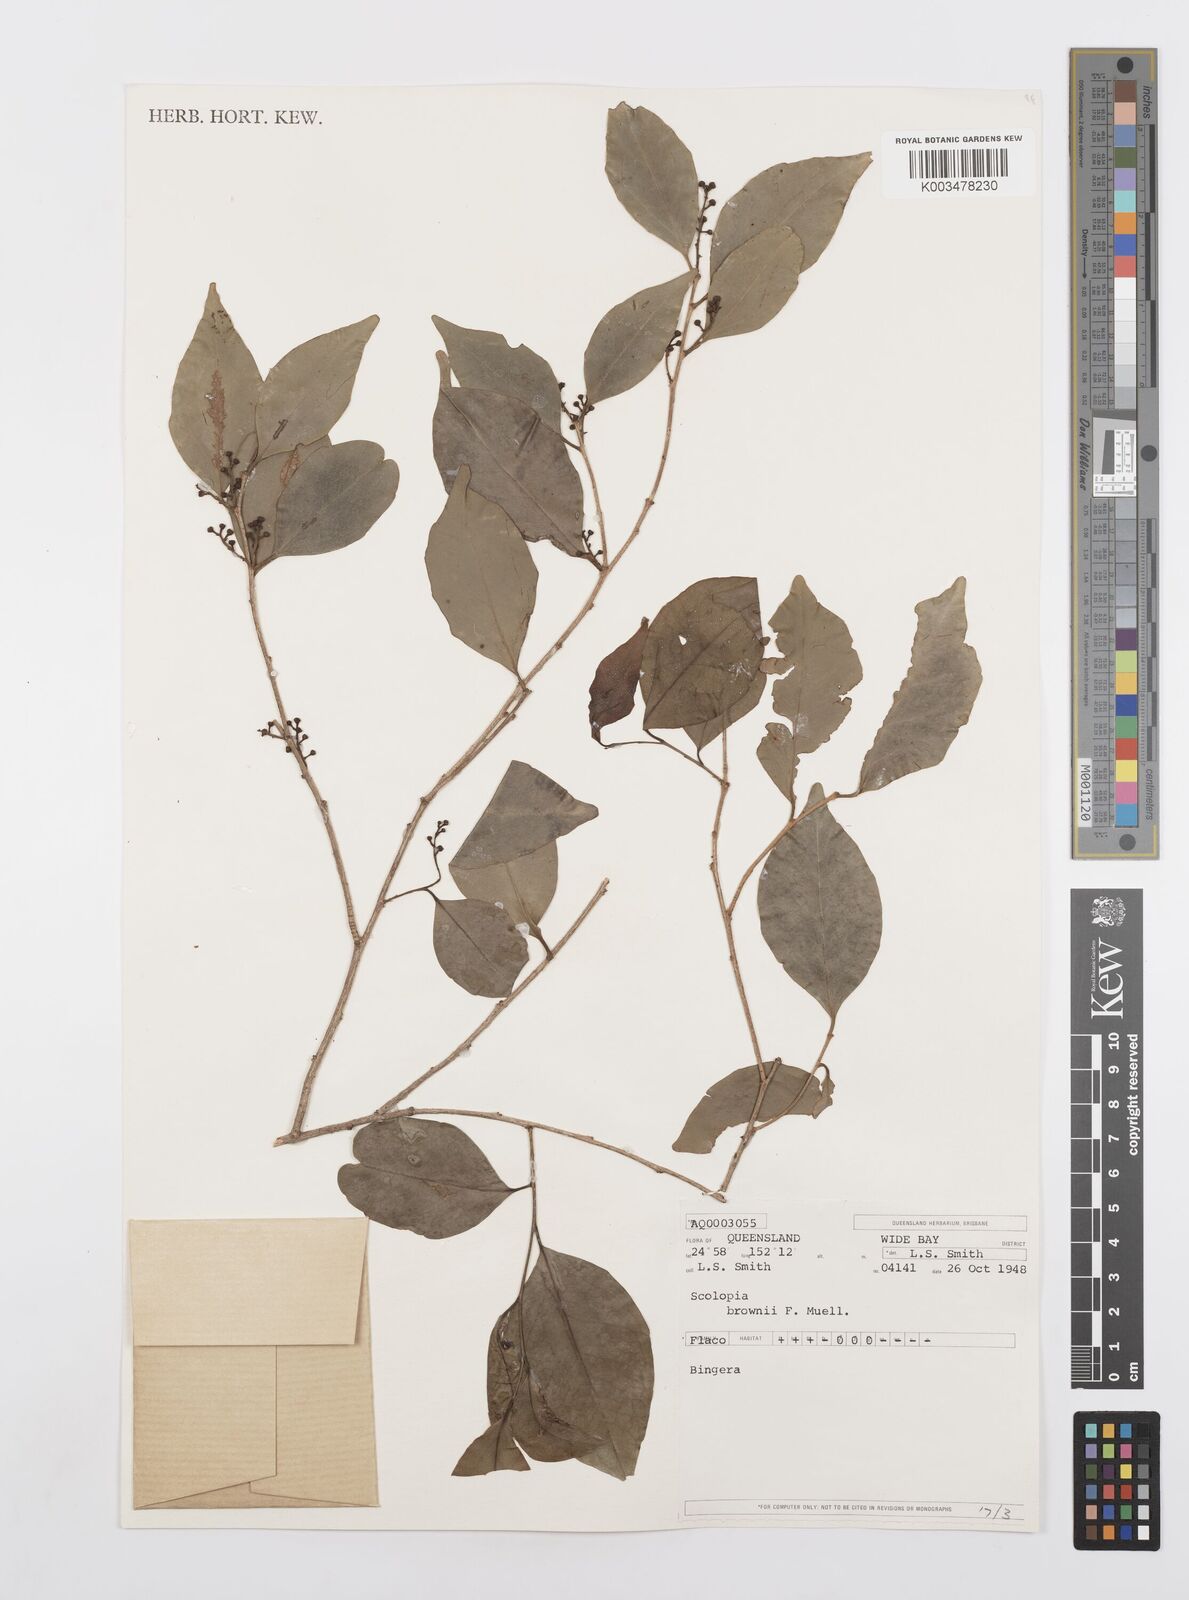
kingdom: Plantae
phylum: Tracheophyta
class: Magnoliopsida
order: Malpighiales
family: Salicaceae
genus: Scolopia
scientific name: Scolopia braunii
